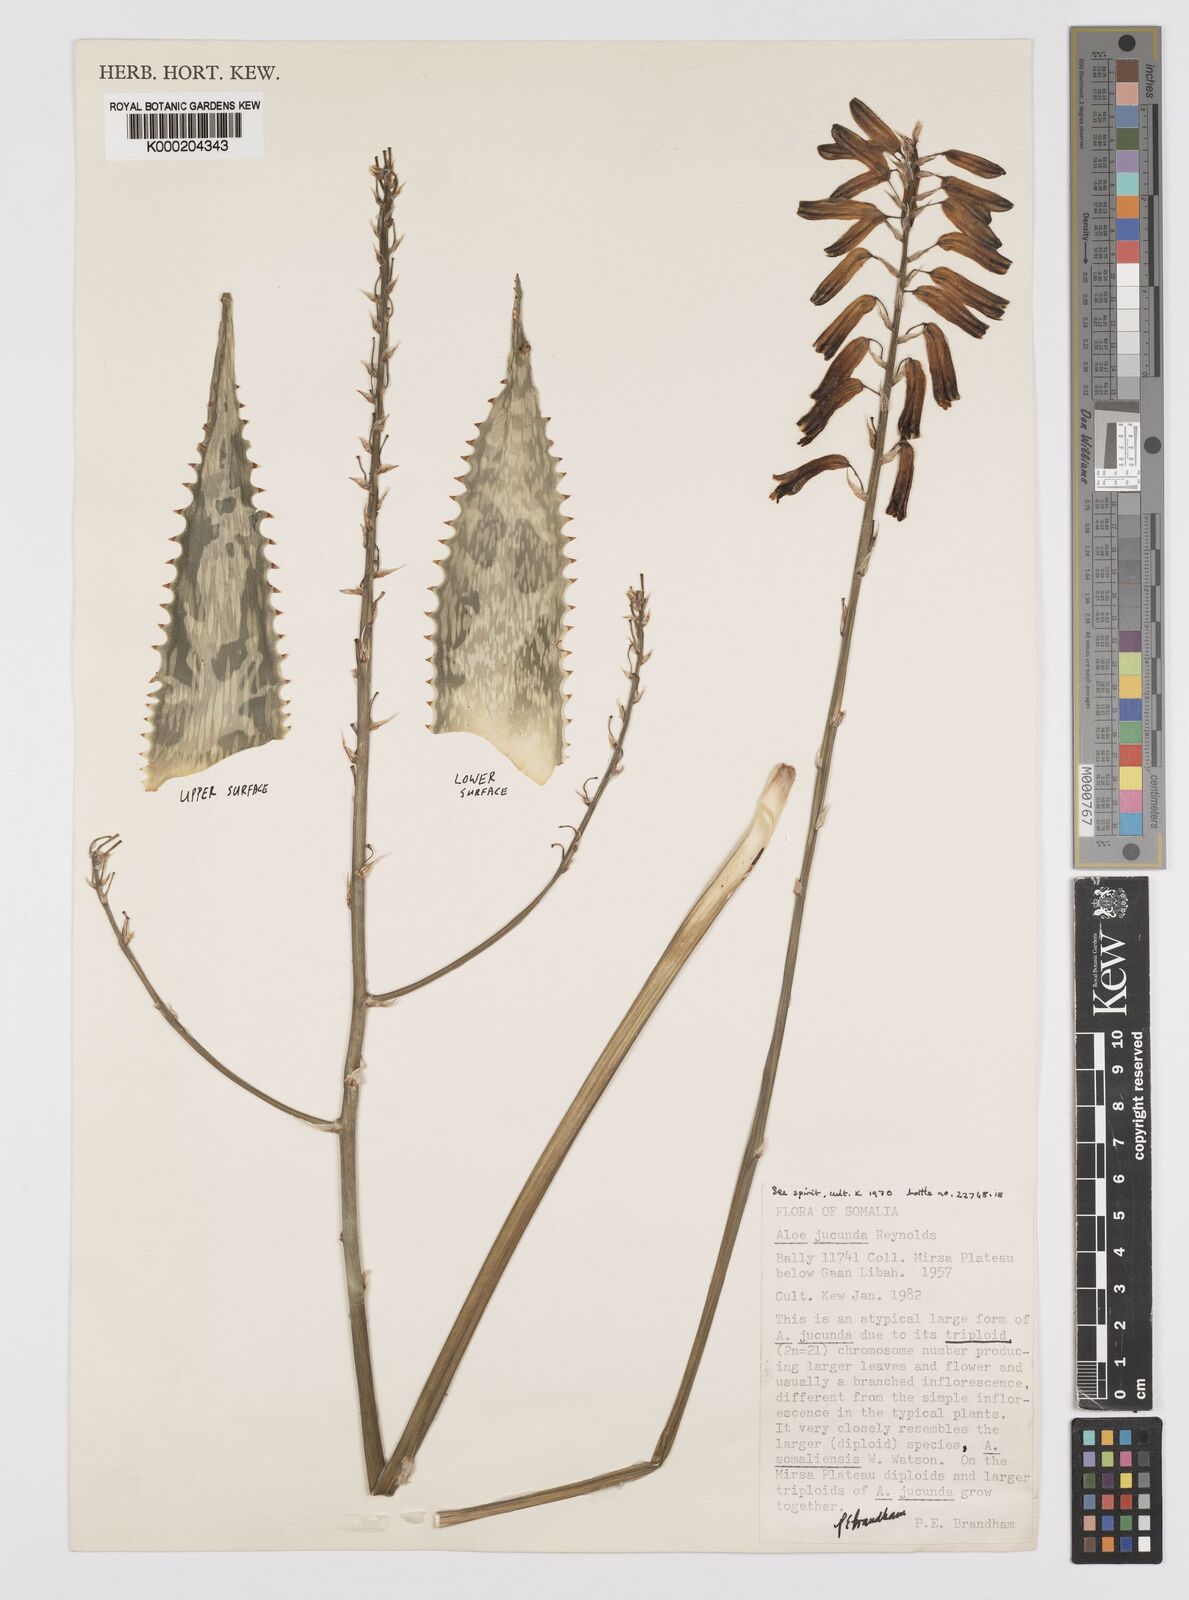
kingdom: Plantae
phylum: Tracheophyta
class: Liliopsida
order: Asparagales
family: Asphodelaceae
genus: Aloe
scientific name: Aloe jucunda
